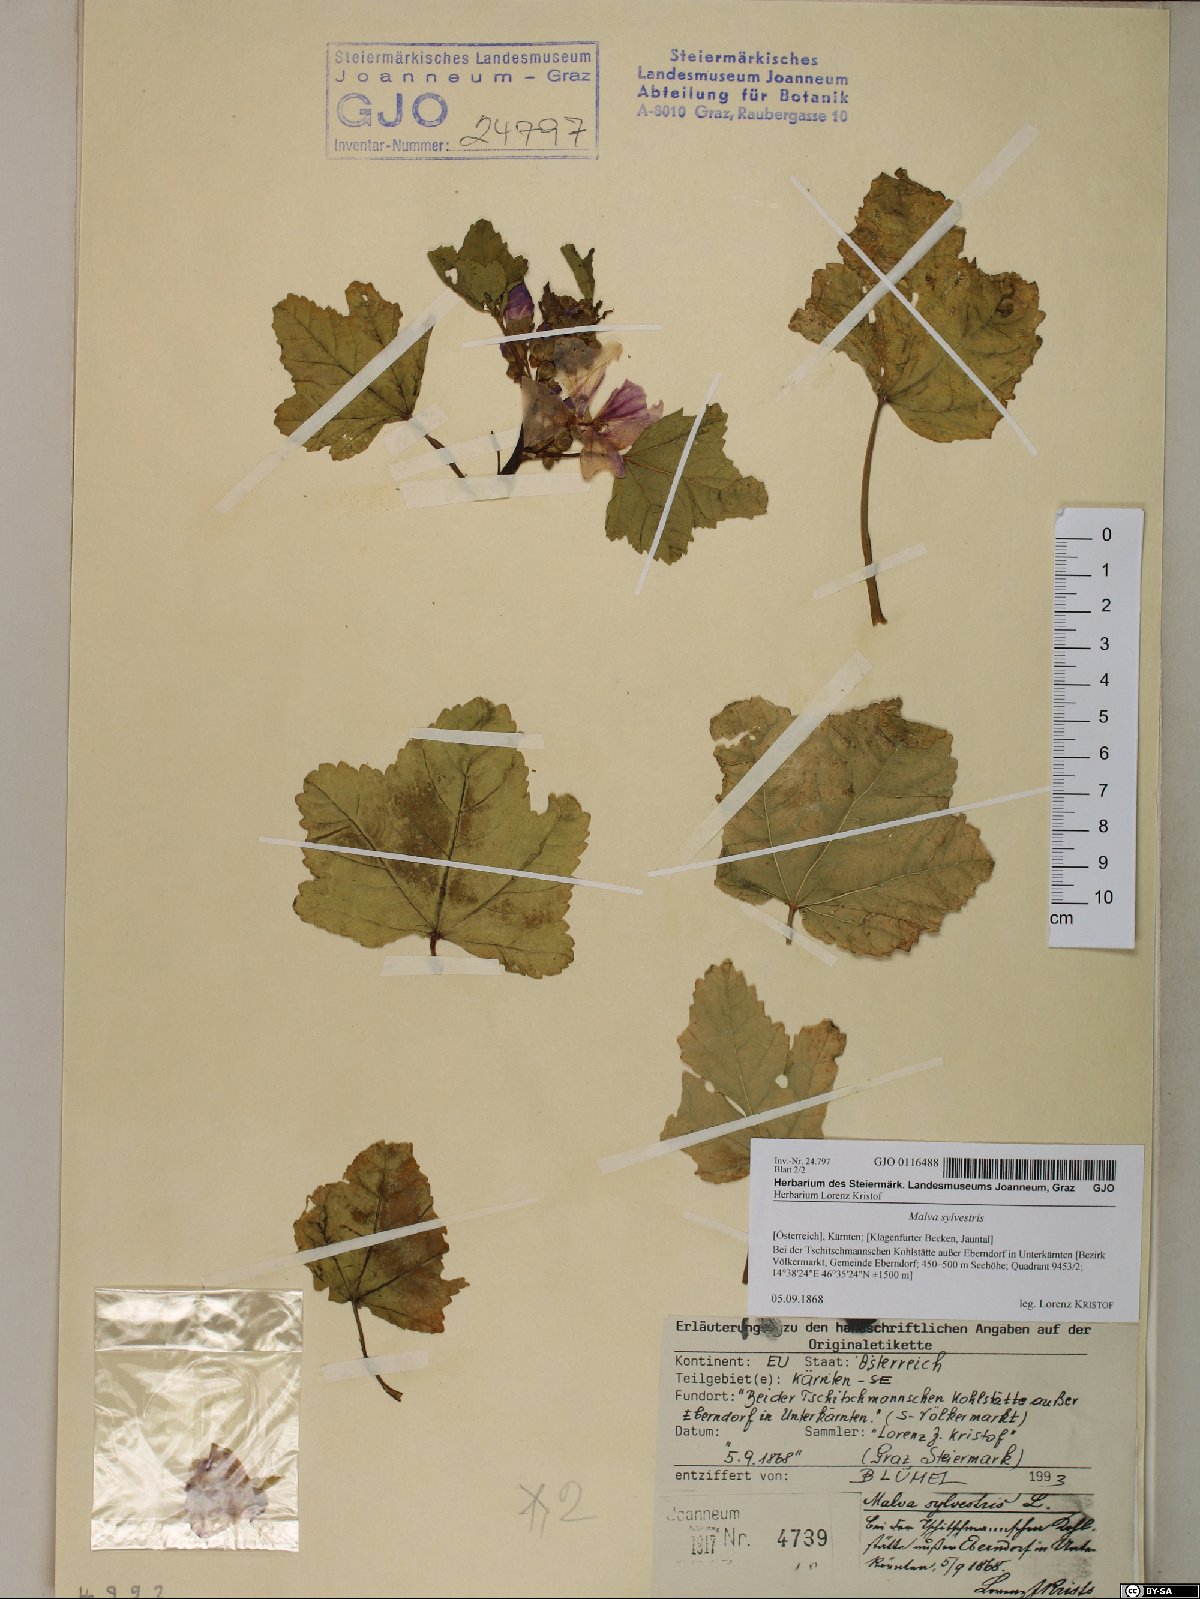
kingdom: Plantae
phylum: Tracheophyta
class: Magnoliopsida
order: Malvales
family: Malvaceae
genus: Malva
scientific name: Malva sylvestris
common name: Common mallow
